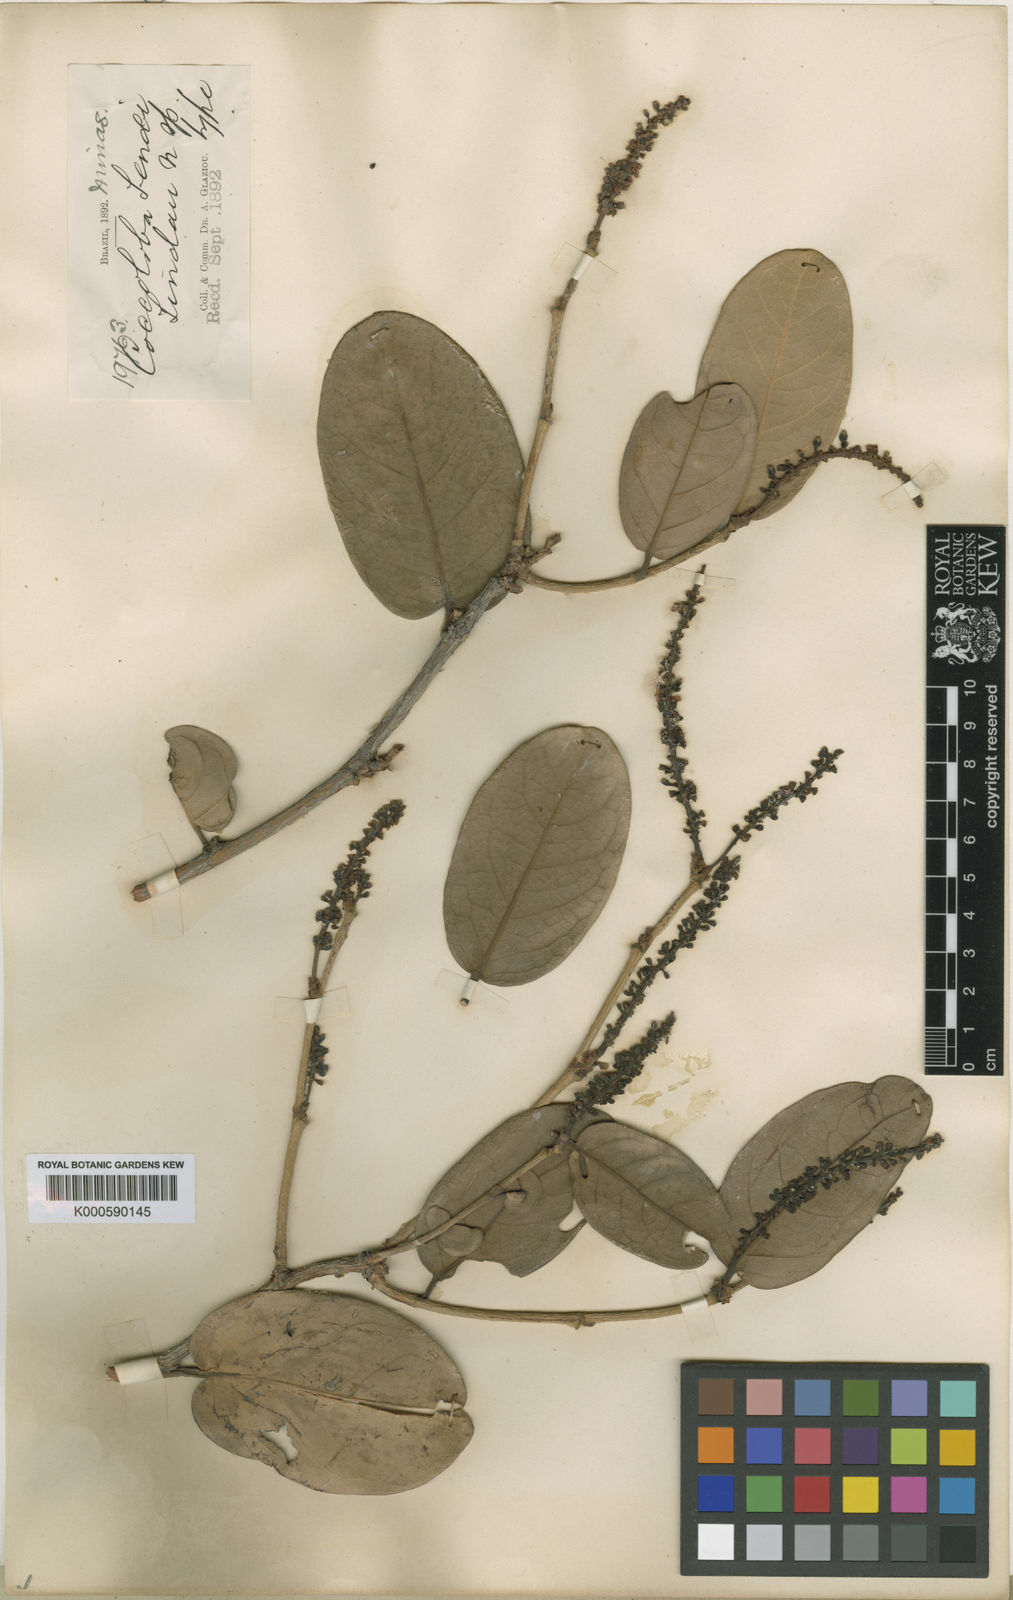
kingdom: Plantae
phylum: Tracheophyta
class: Magnoliopsida
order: Caryophyllales
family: Polygonaceae
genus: Coccoloba
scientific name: Coccoloba brasiliensis
